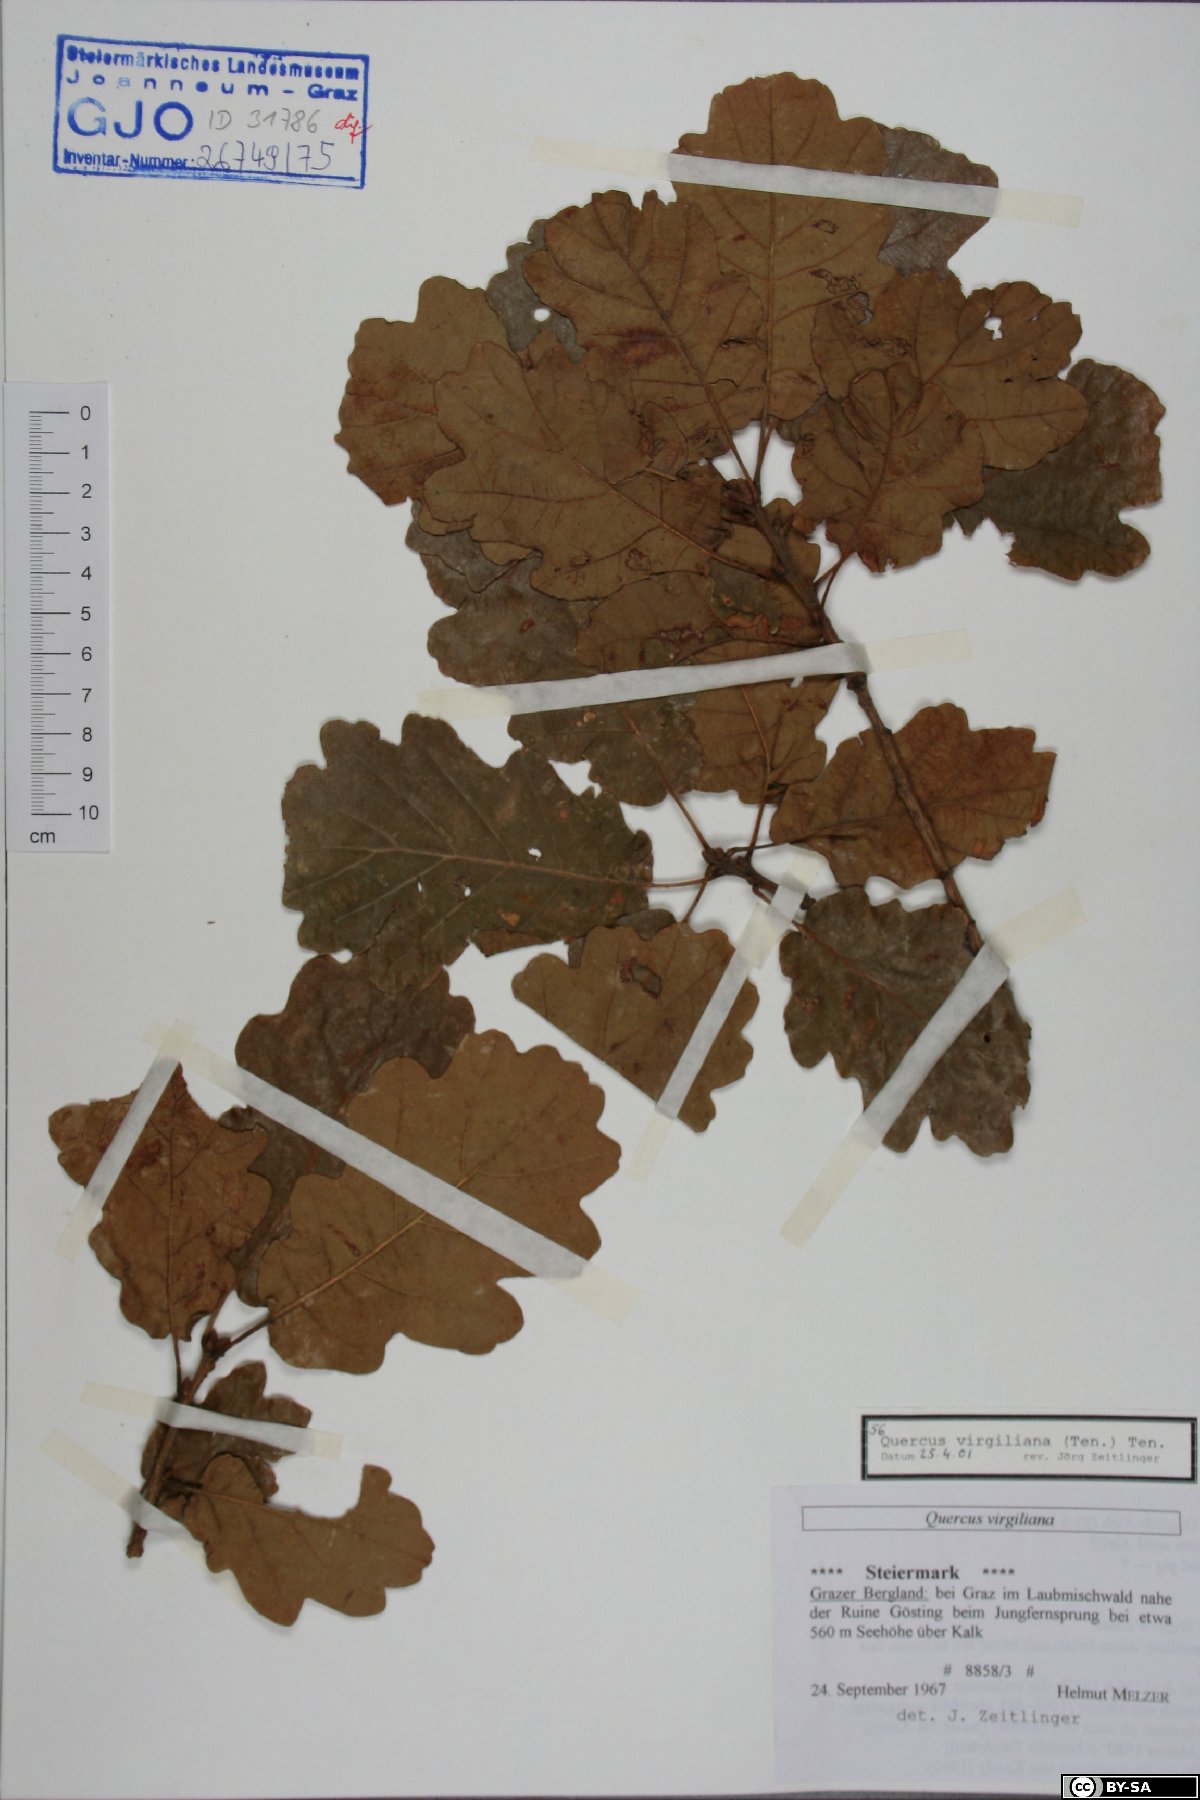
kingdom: Plantae
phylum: Tracheophyta
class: Magnoliopsida
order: Fagales
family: Fagaceae
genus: Quercus
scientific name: Quercus pubescens
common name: Downy oak
